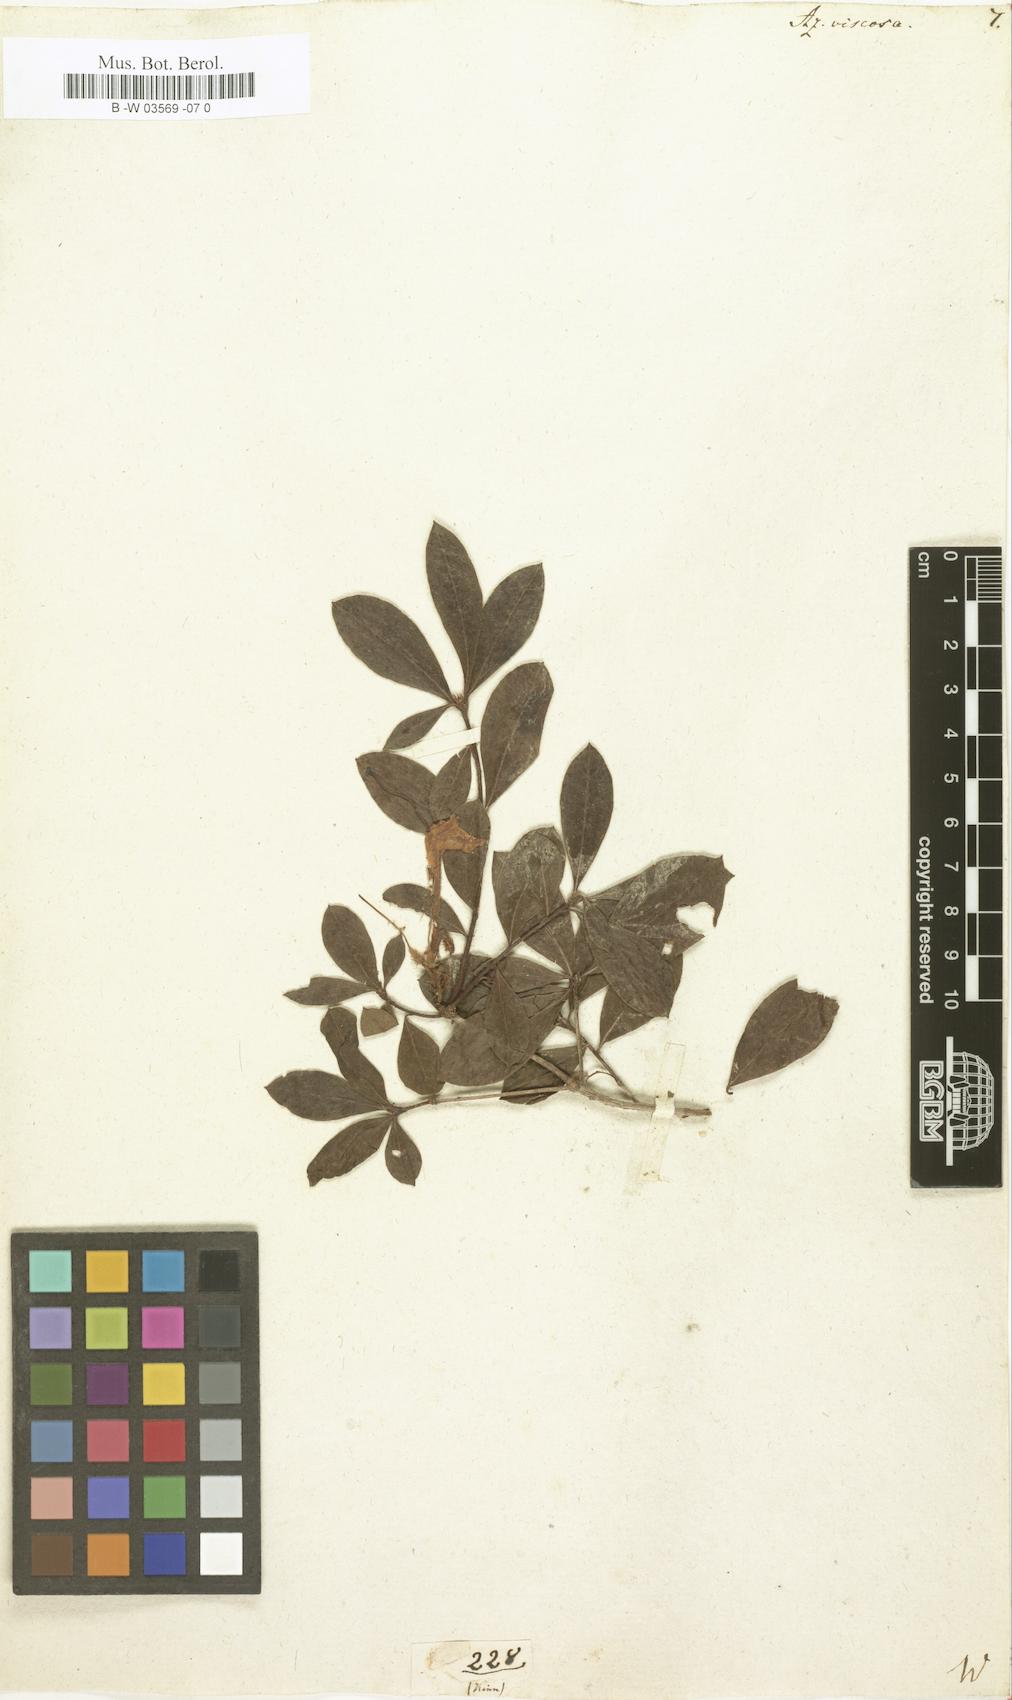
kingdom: Plantae
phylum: Tracheophyta
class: Magnoliopsida
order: Ericales
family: Ericaceae
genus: Rhododendron
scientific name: Rhododendron viscosum
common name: Clammy azalea
